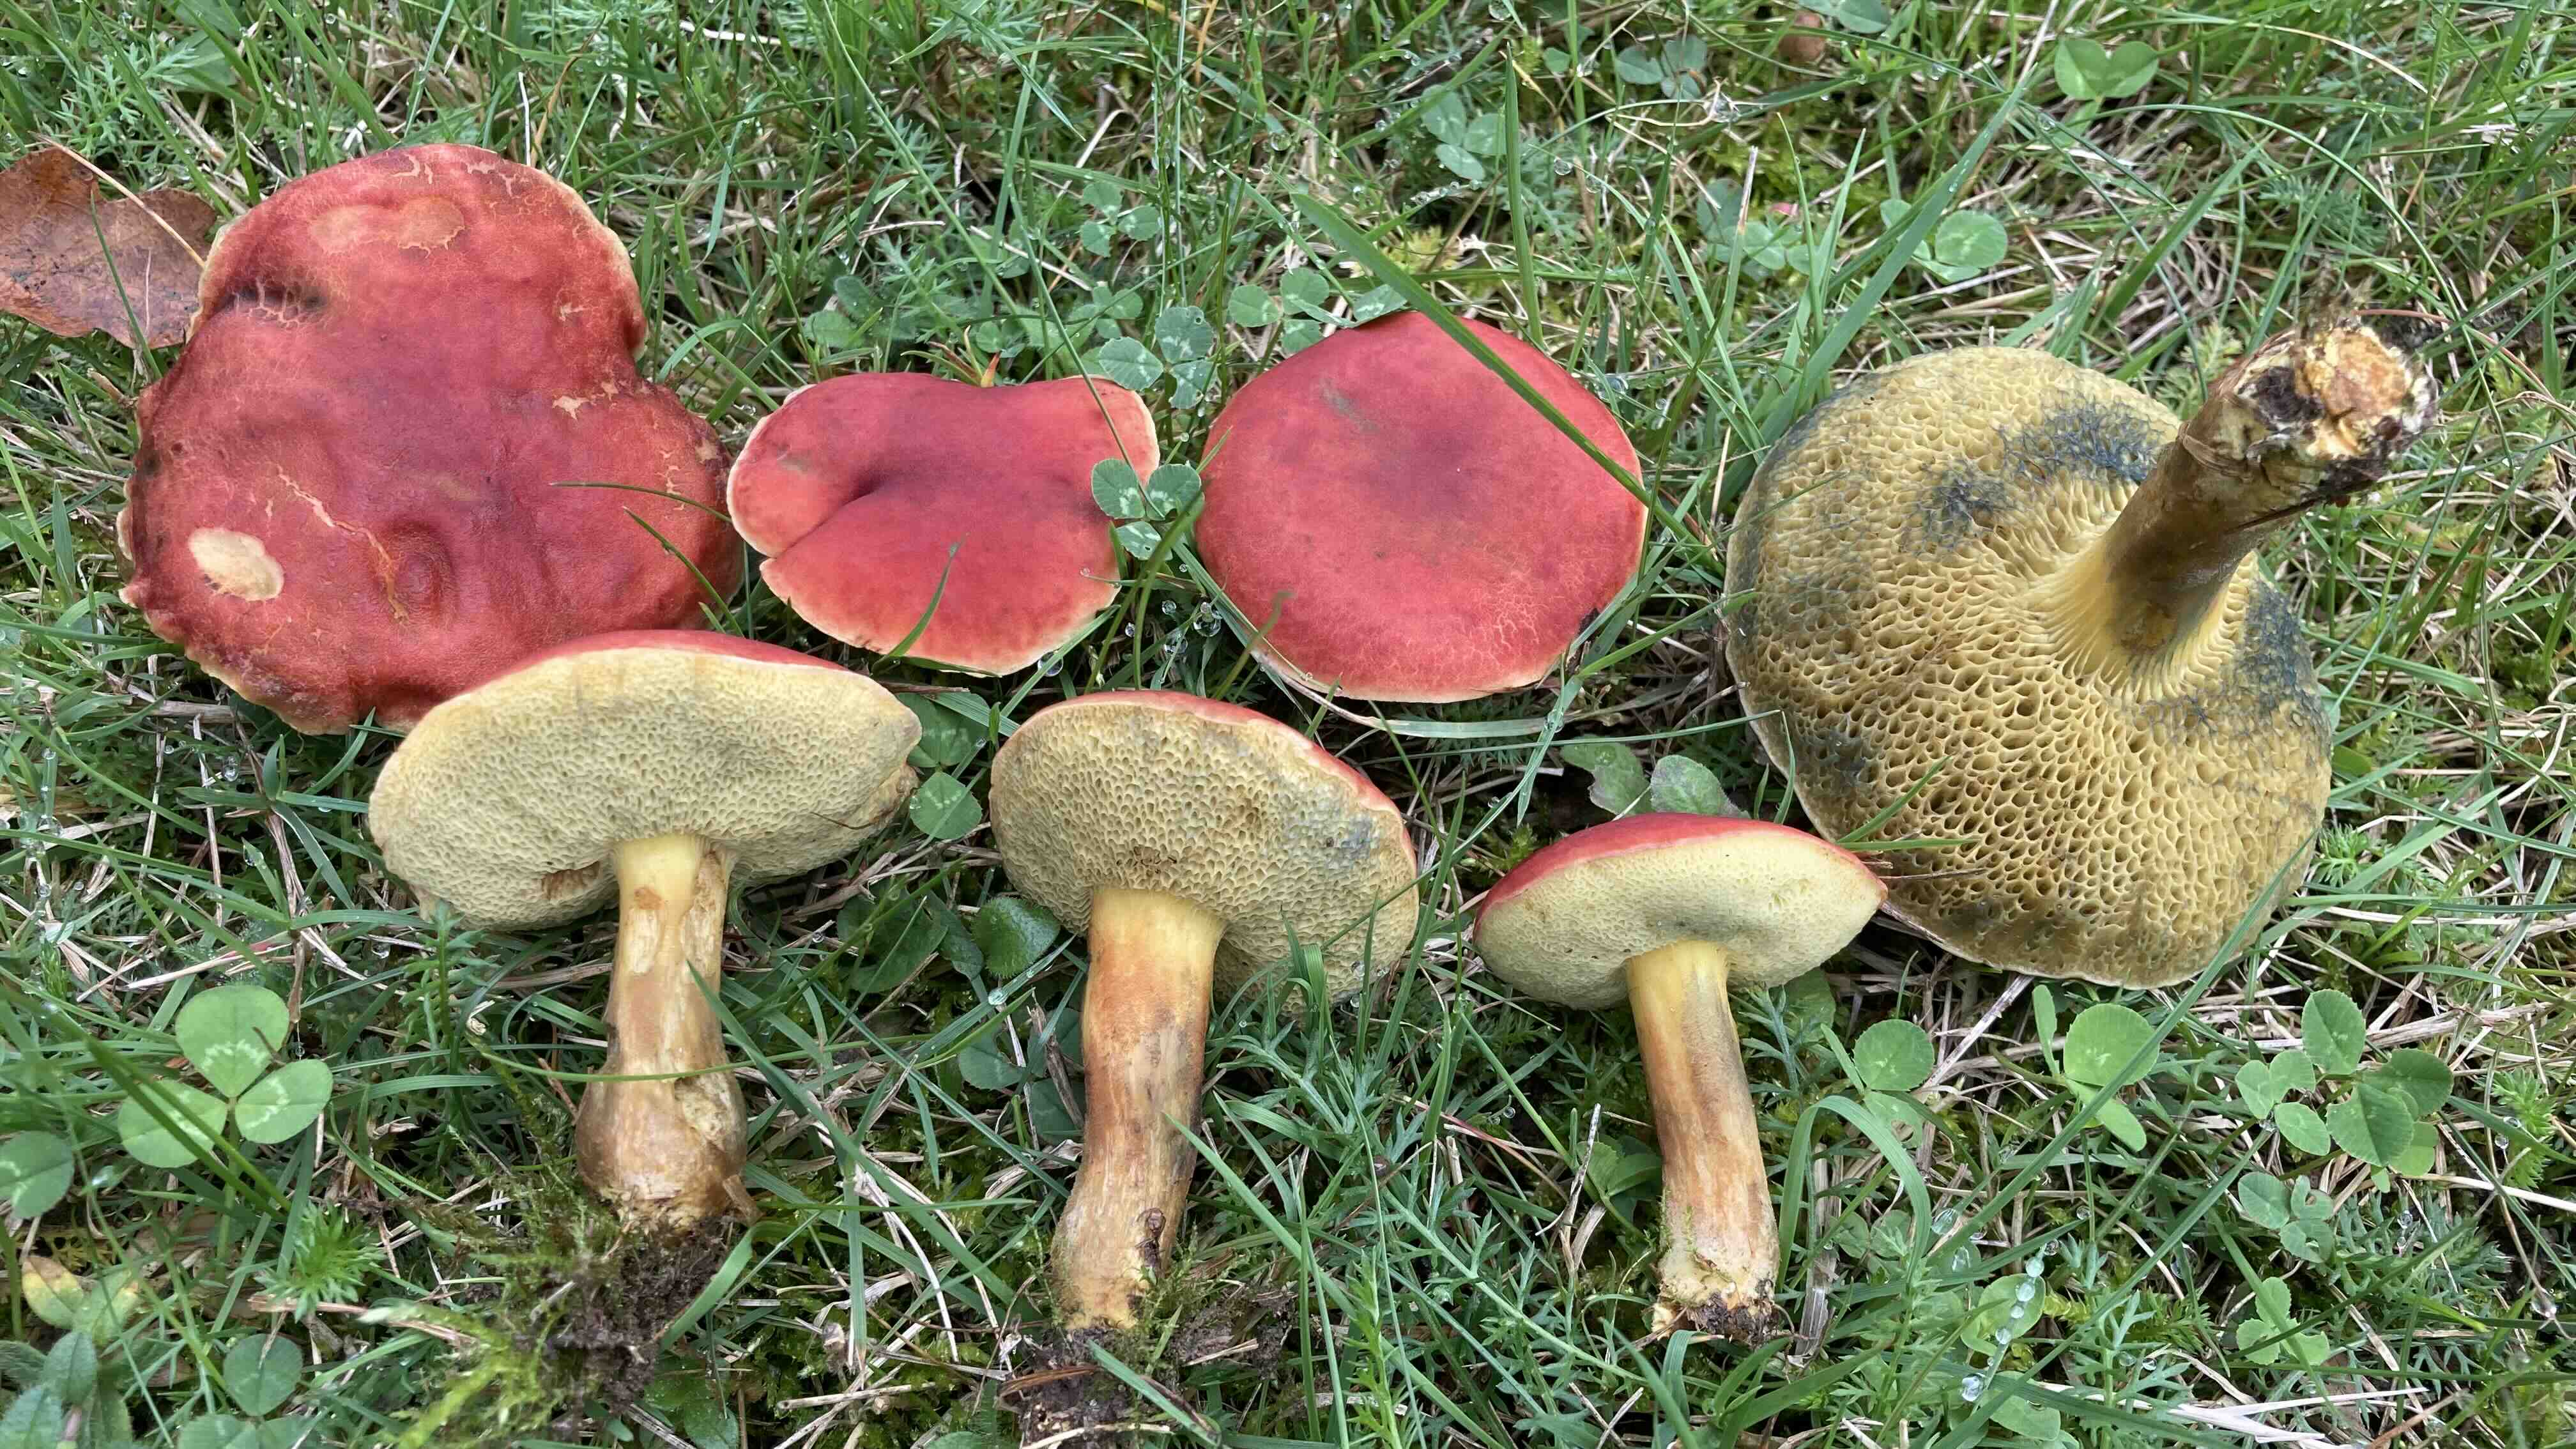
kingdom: Fungi
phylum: Basidiomycota
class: Agaricomycetes
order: Boletales
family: Boletaceae
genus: Hortiboletus
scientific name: Hortiboletus rubellus
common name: blodrød rørhat
